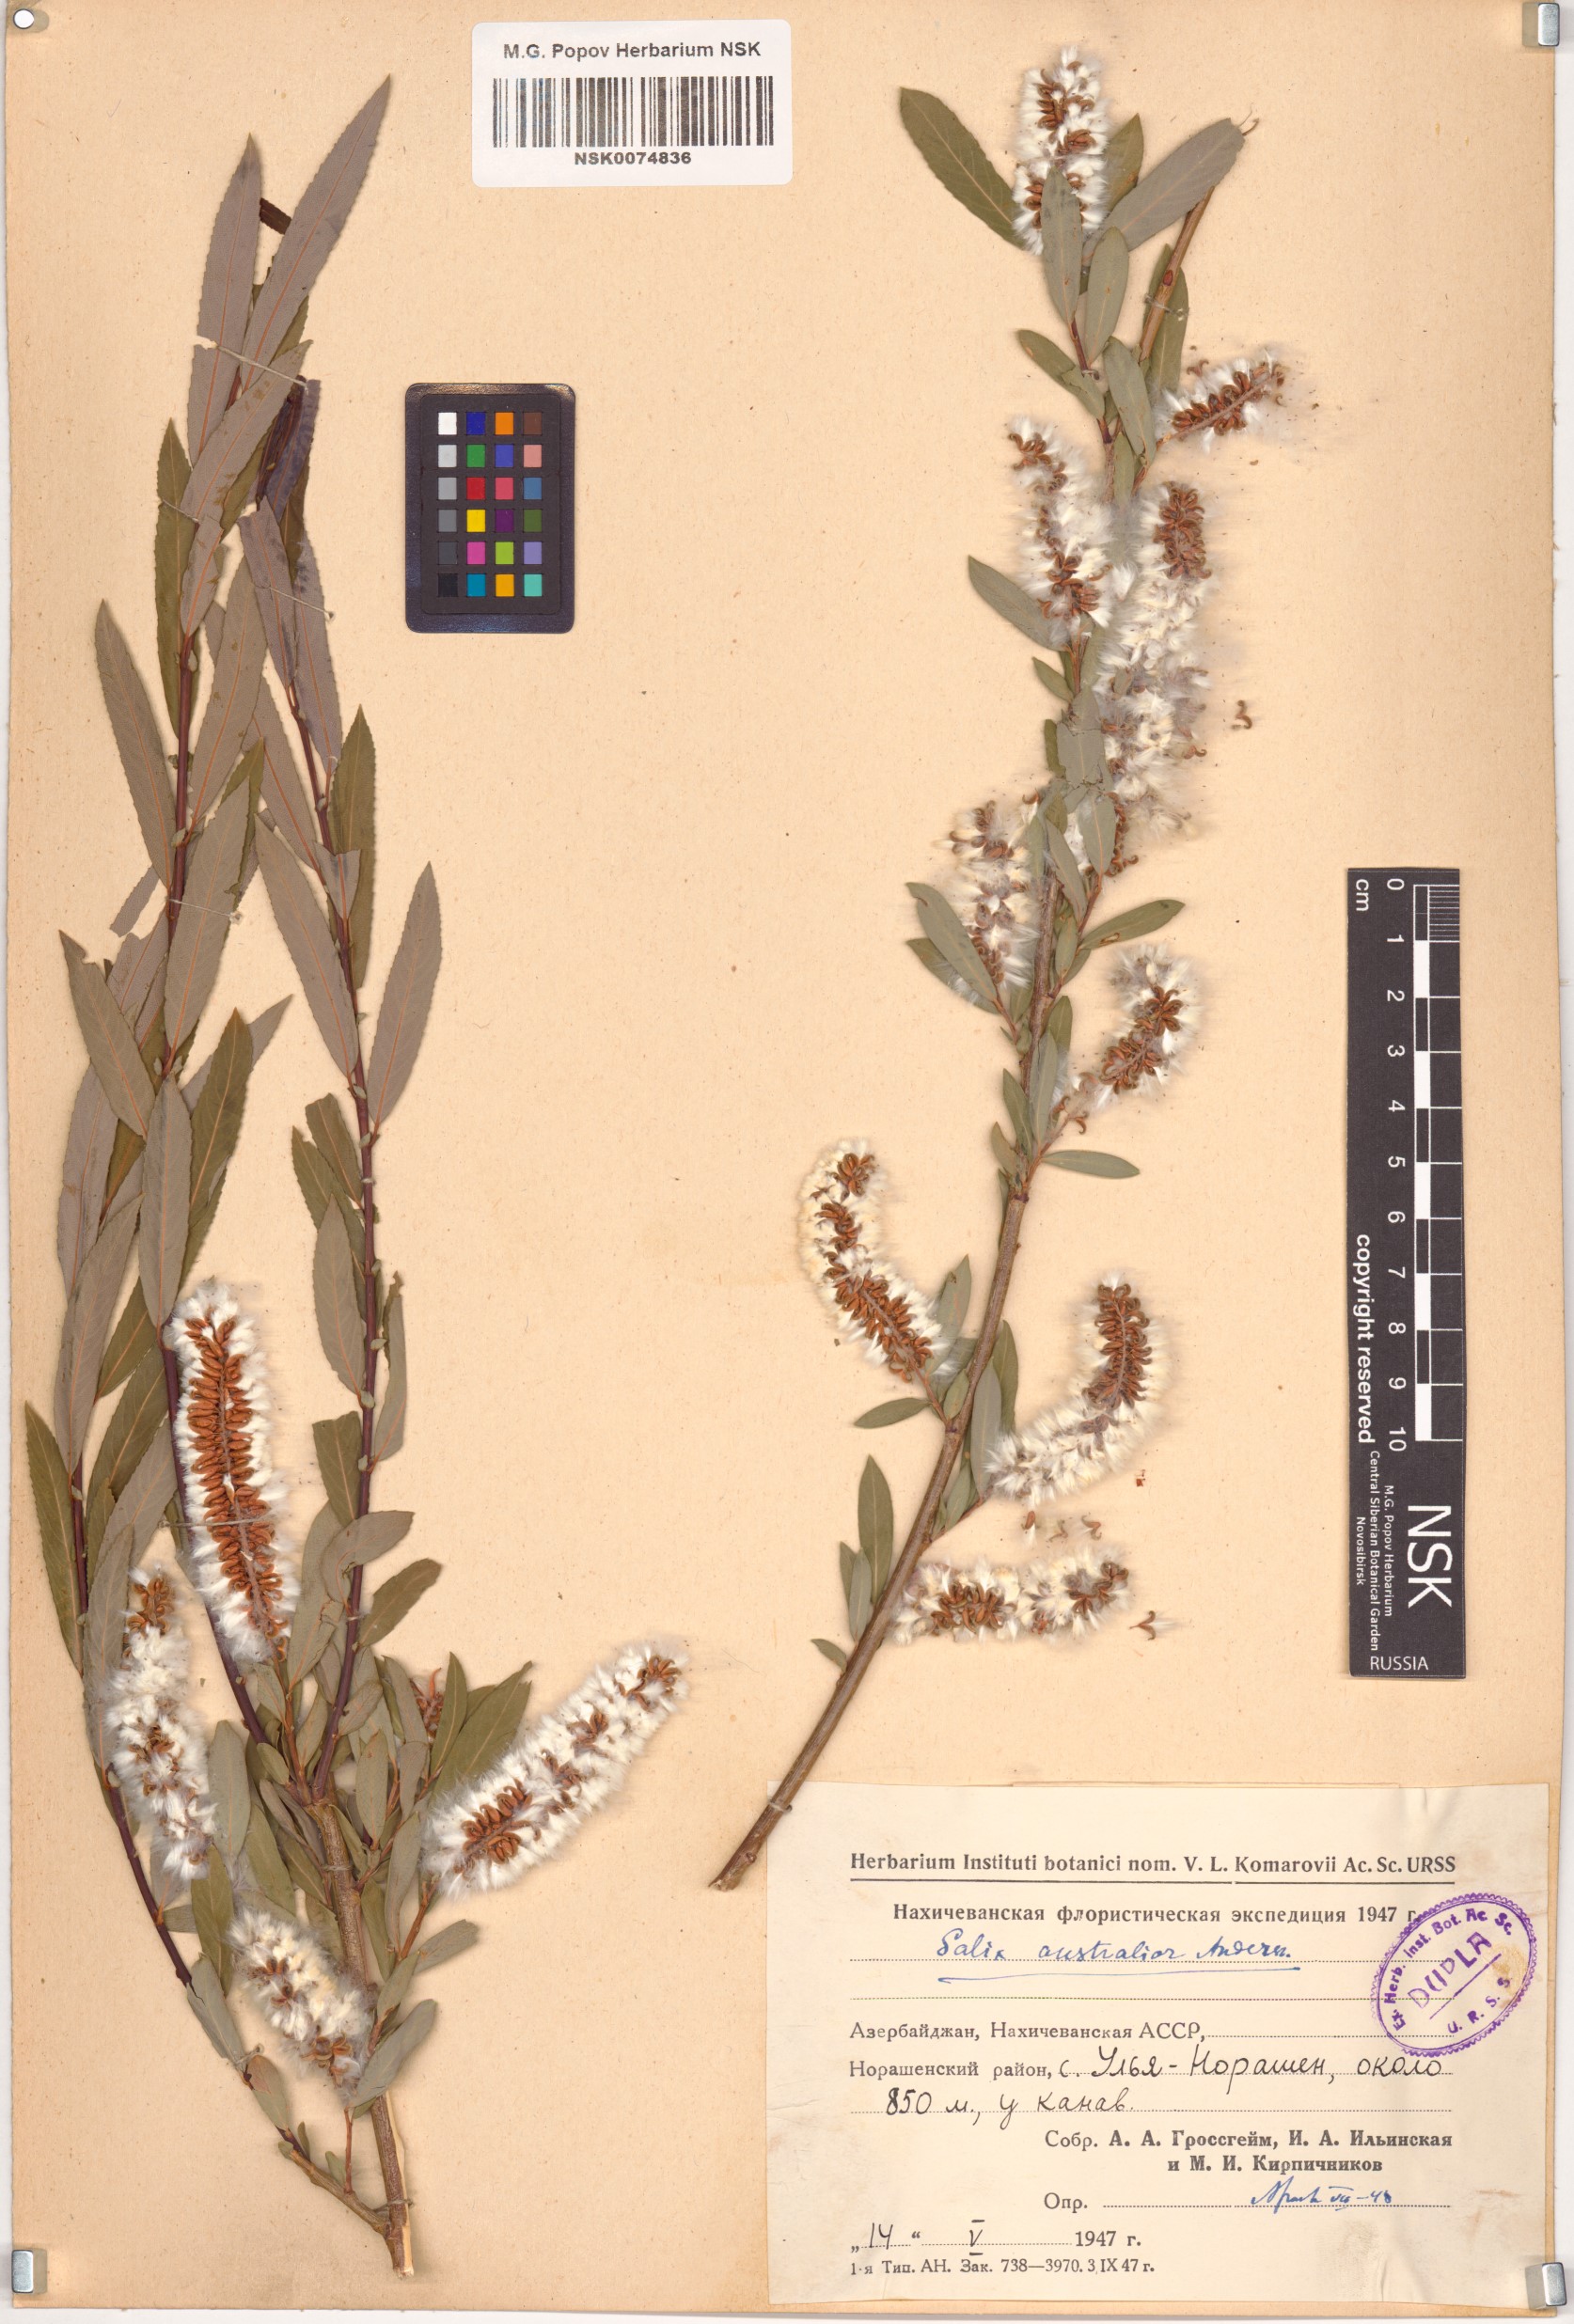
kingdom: Plantae
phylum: Tracheophyta
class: Magnoliopsida
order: Malpighiales
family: Salicaceae
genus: Salix
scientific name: Salix excelsa
